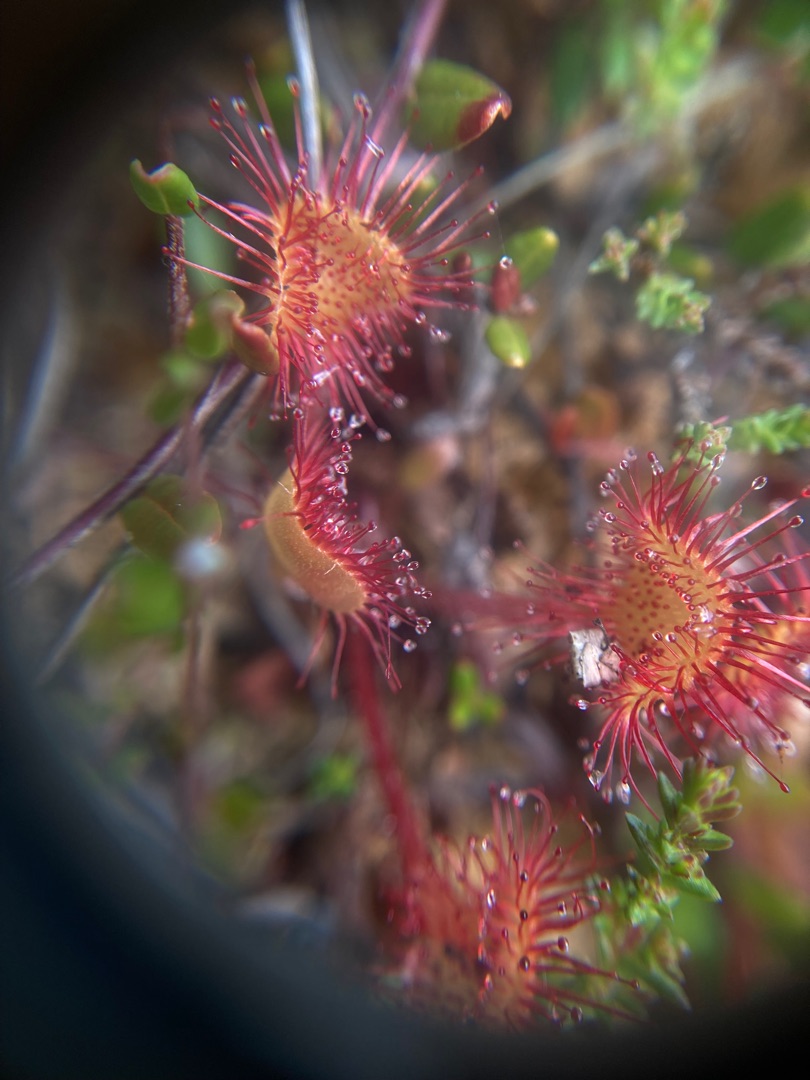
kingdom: Plantae
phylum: Tracheophyta
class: Magnoliopsida
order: Caryophyllales
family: Droseraceae
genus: Drosera
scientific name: Drosera rotundifolia
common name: Rundbladet soldug
